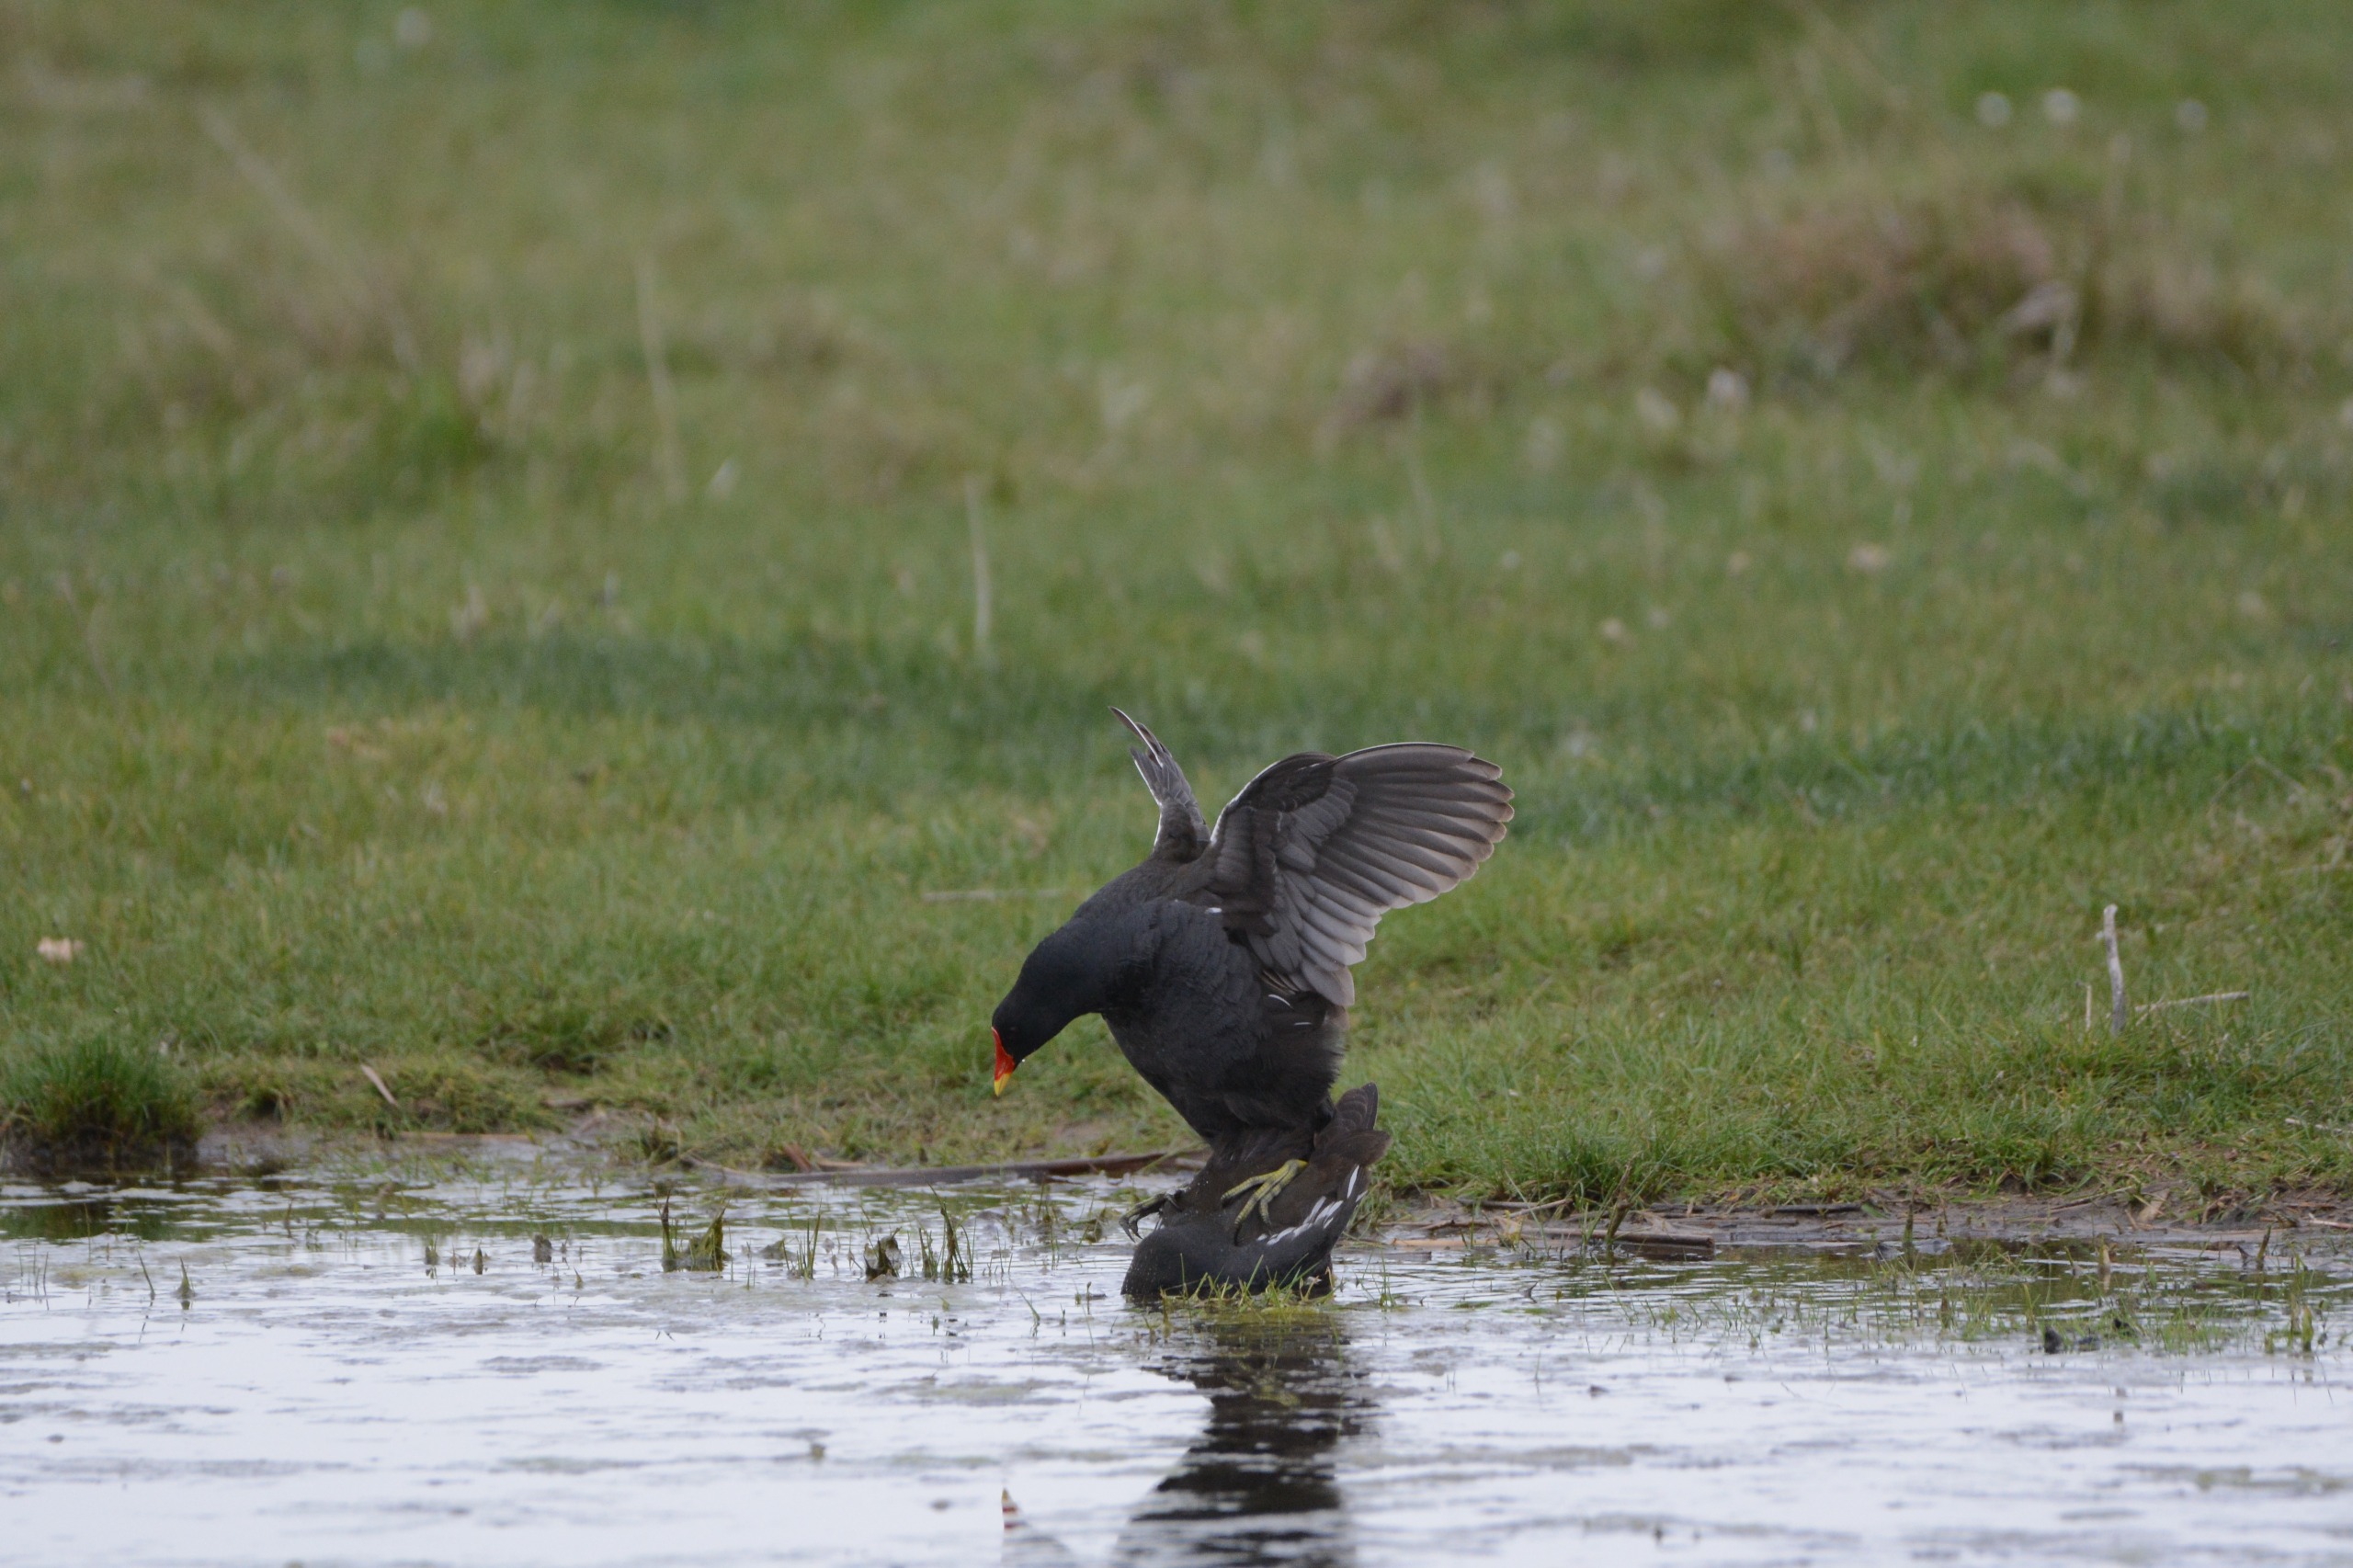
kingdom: Animalia
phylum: Chordata
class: Aves
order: Gruiformes
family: Rallidae
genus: Gallinula
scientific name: Gallinula chloropus
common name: Grønbenet rørhøne
